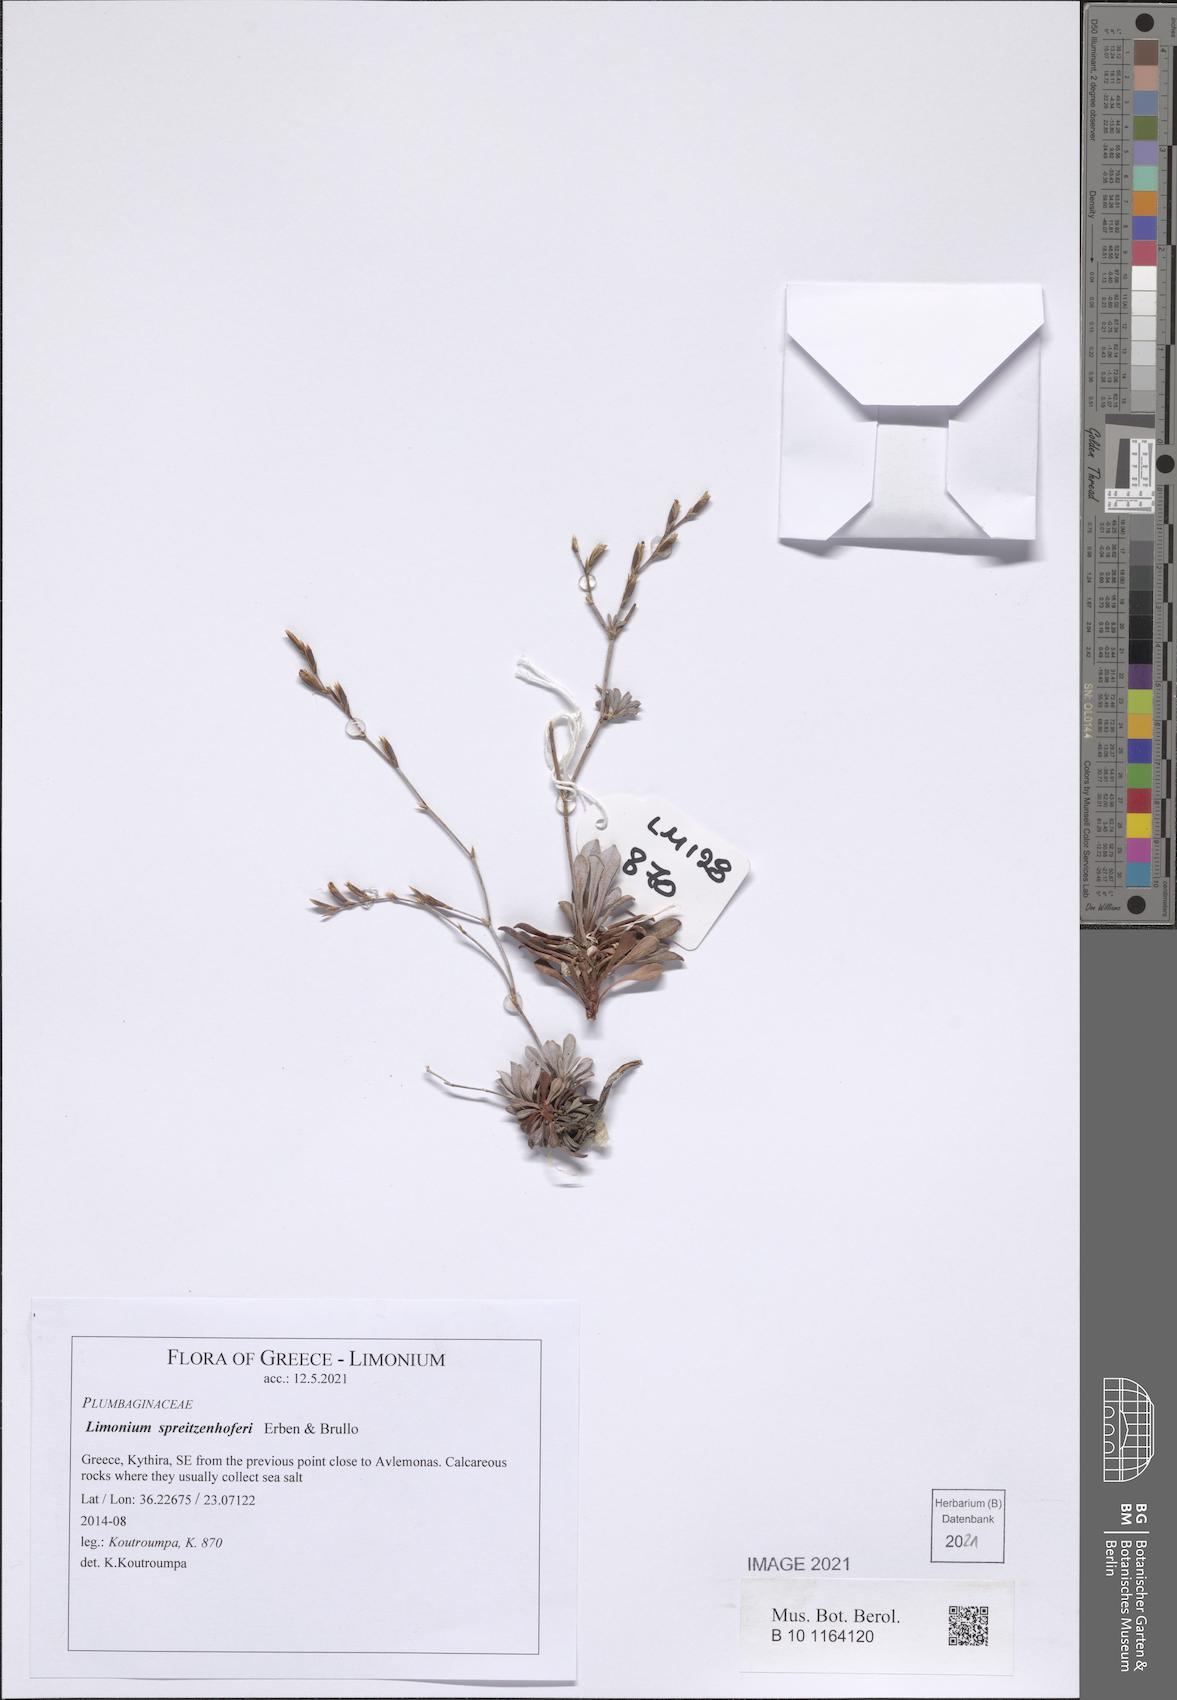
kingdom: Plantae
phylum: Tracheophyta
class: Magnoliopsida
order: Caryophyllales
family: Plumbaginaceae
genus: Limonium
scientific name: Limonium spreitzenhoferi
